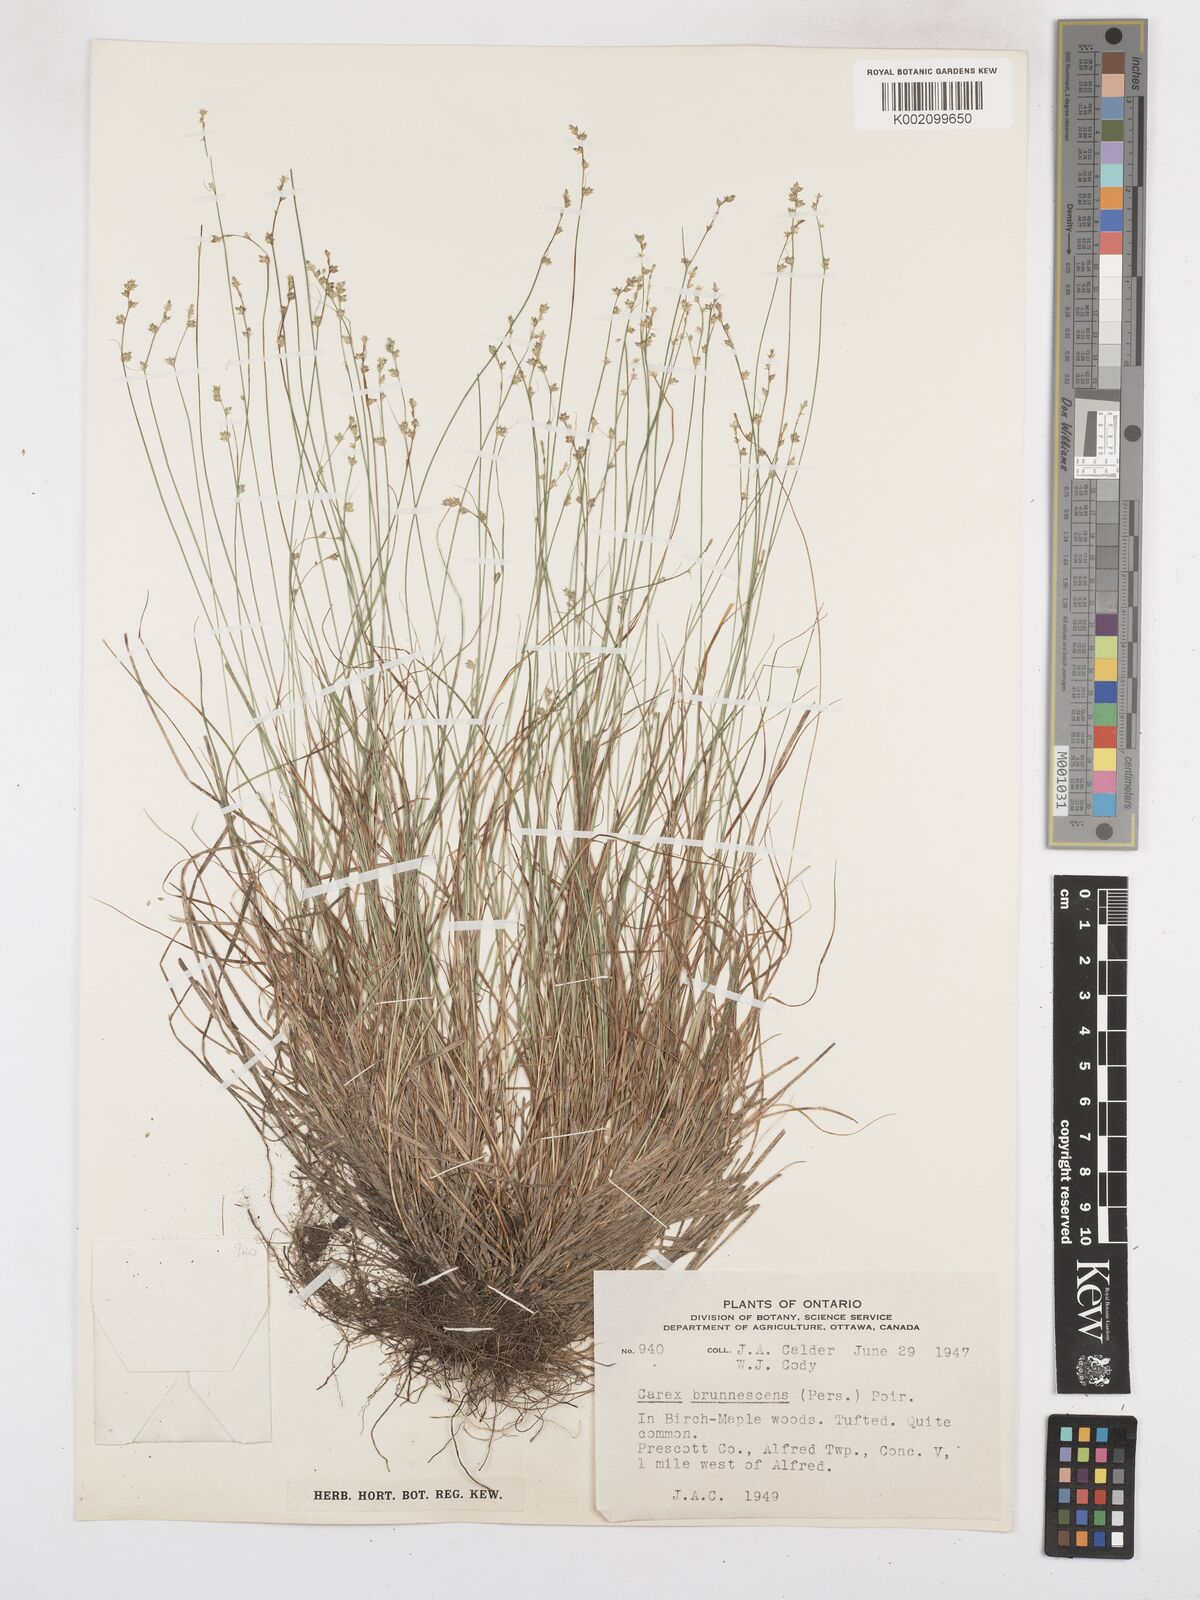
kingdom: Plantae
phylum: Tracheophyta
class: Liliopsida
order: Poales
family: Cyperaceae
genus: Carex
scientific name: Carex brunnescens
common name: Brown sedge
